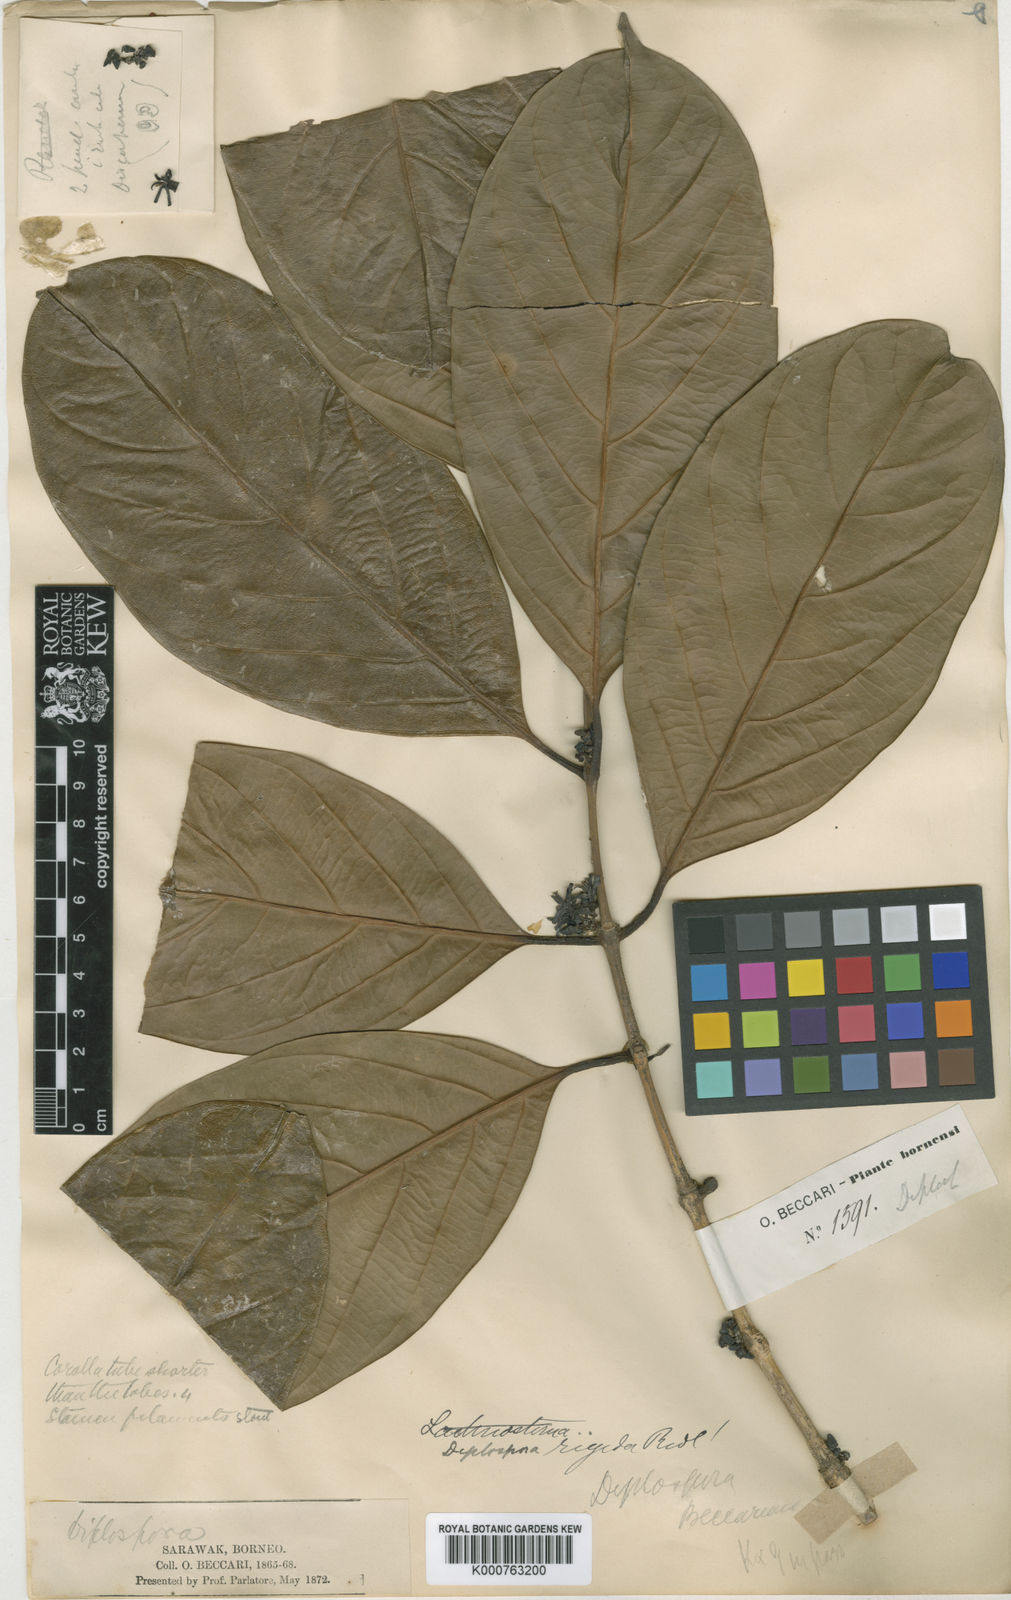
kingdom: Plantae
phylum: Tracheophyta
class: Magnoliopsida
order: Gentianales
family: Rubiaceae
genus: Discospermum
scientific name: Discospermum beccarianum
